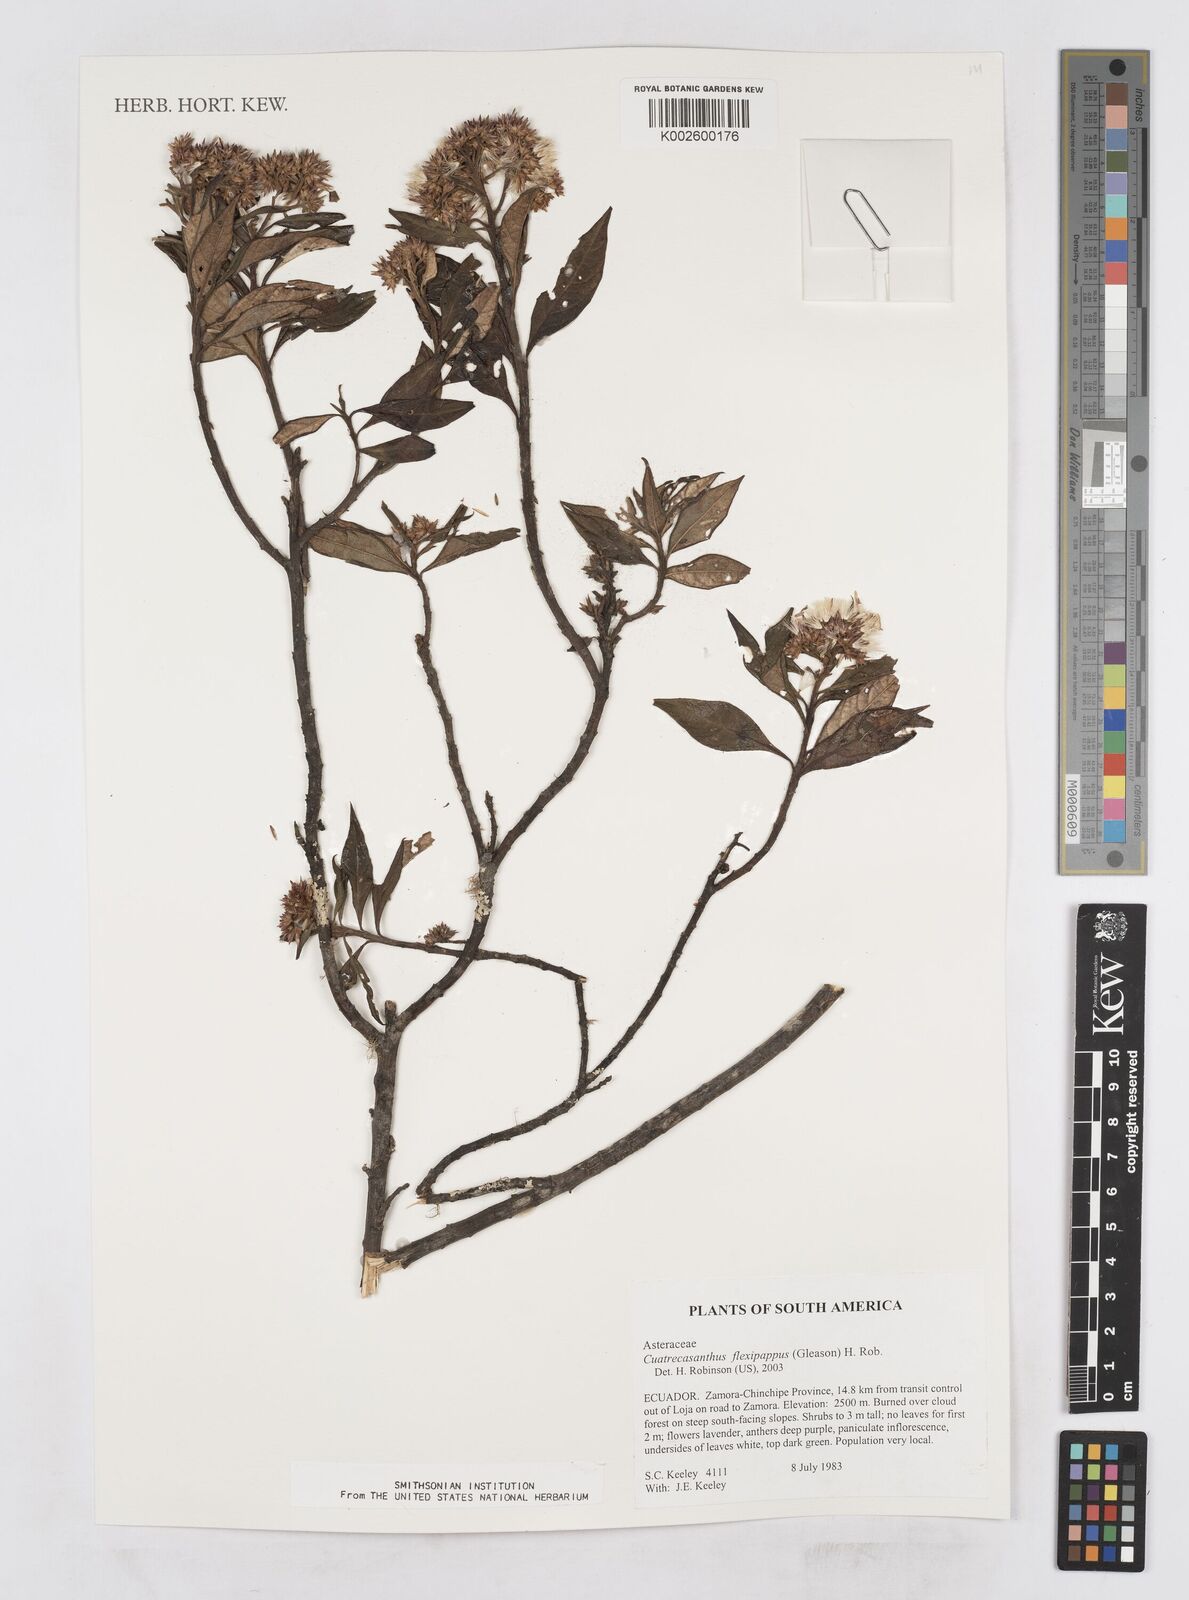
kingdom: Plantae
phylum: Tracheophyta
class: Magnoliopsida
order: Asterales
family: Asteraceae
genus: Cuatrecasanthus
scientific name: Cuatrecasanthus flexipappus
